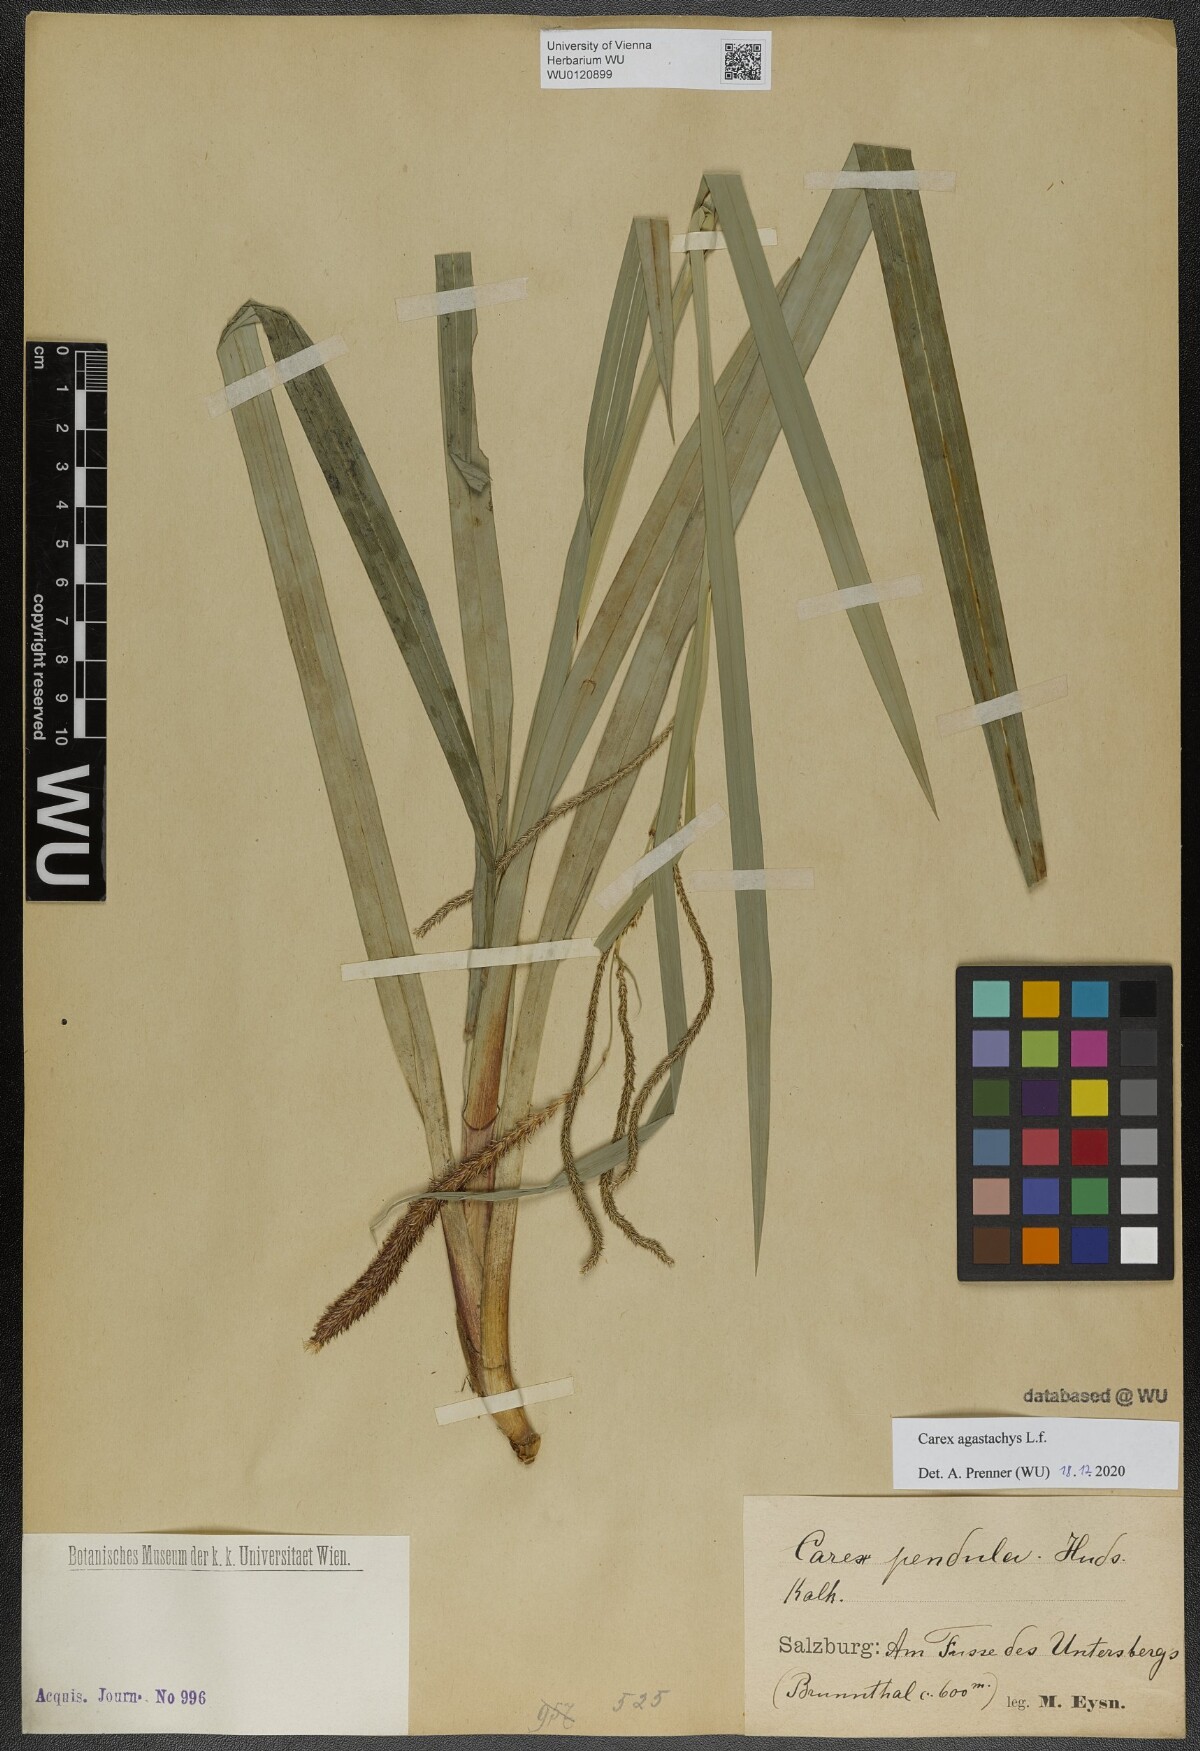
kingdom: Plantae
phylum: Tracheophyta
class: Liliopsida
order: Poales
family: Cyperaceae
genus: Carex
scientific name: Carex pendula
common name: Pendulous sedge
